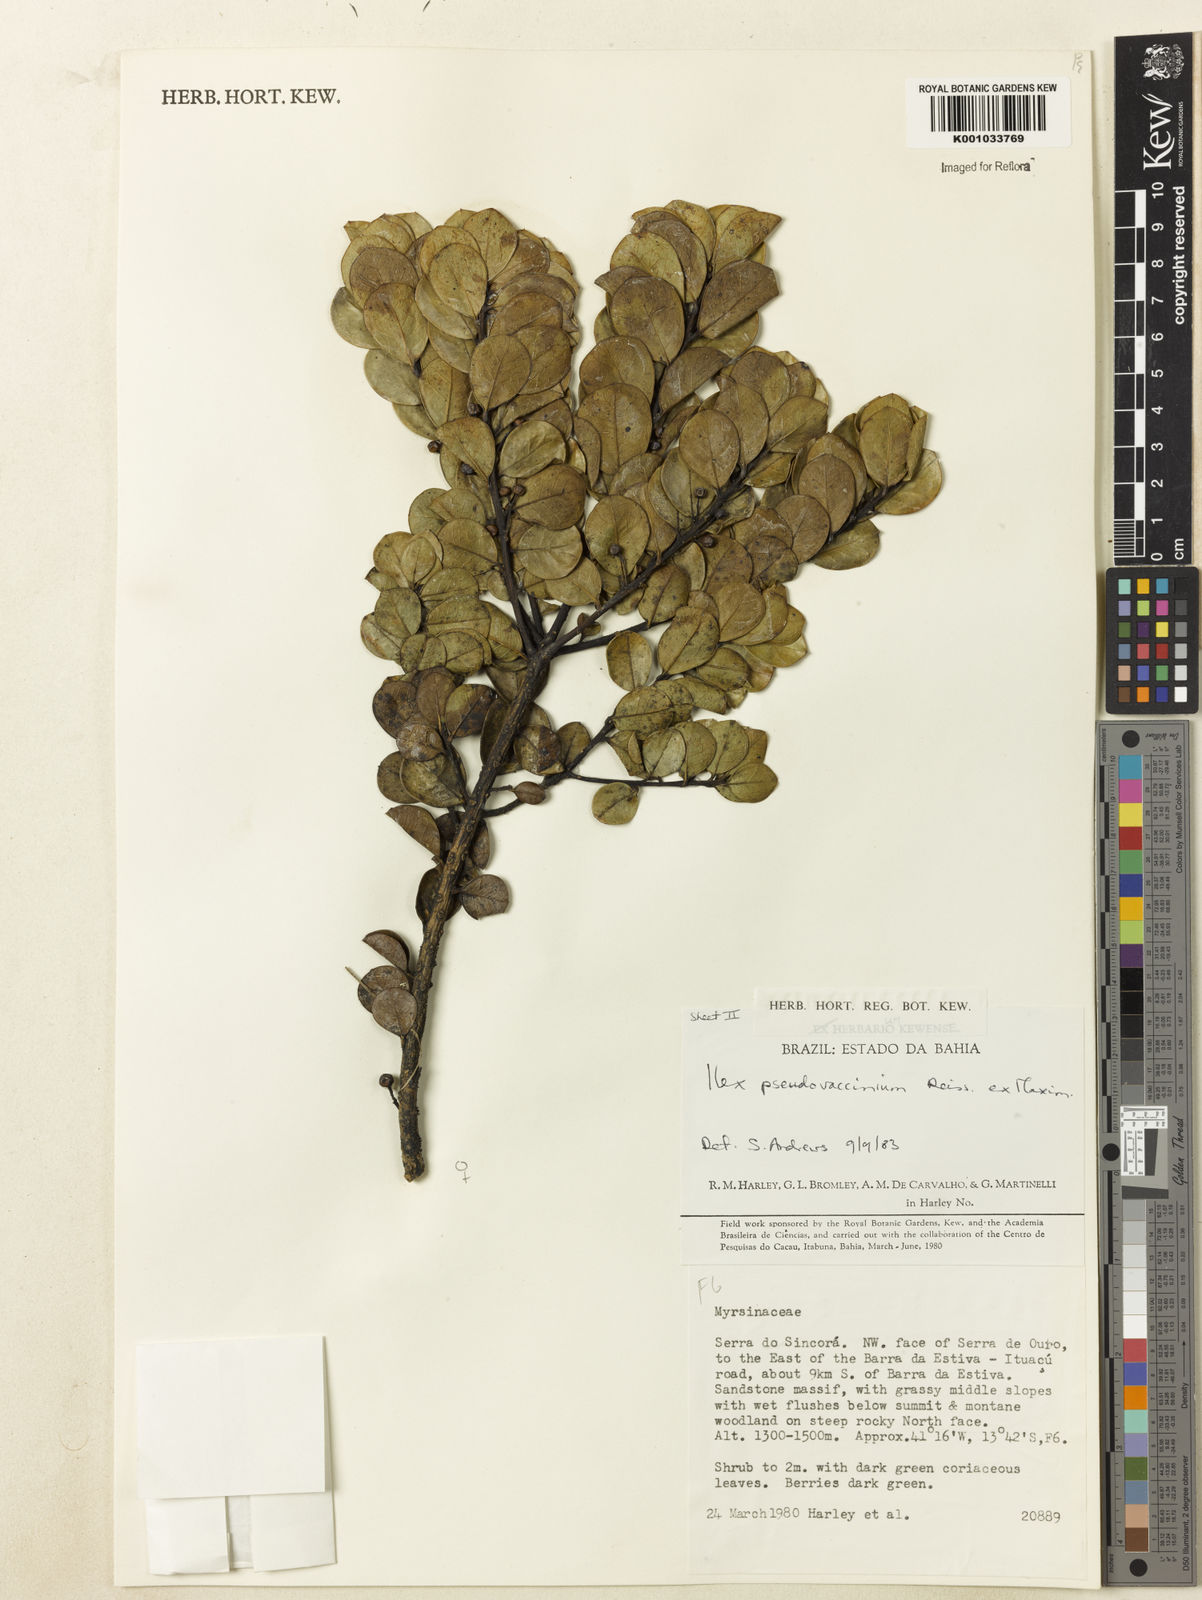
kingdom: Plantae
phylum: Tracheophyta
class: Magnoliopsida
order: Aquifoliales
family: Aquifoliaceae
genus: Ilex
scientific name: Ilex pseudovaccinium
